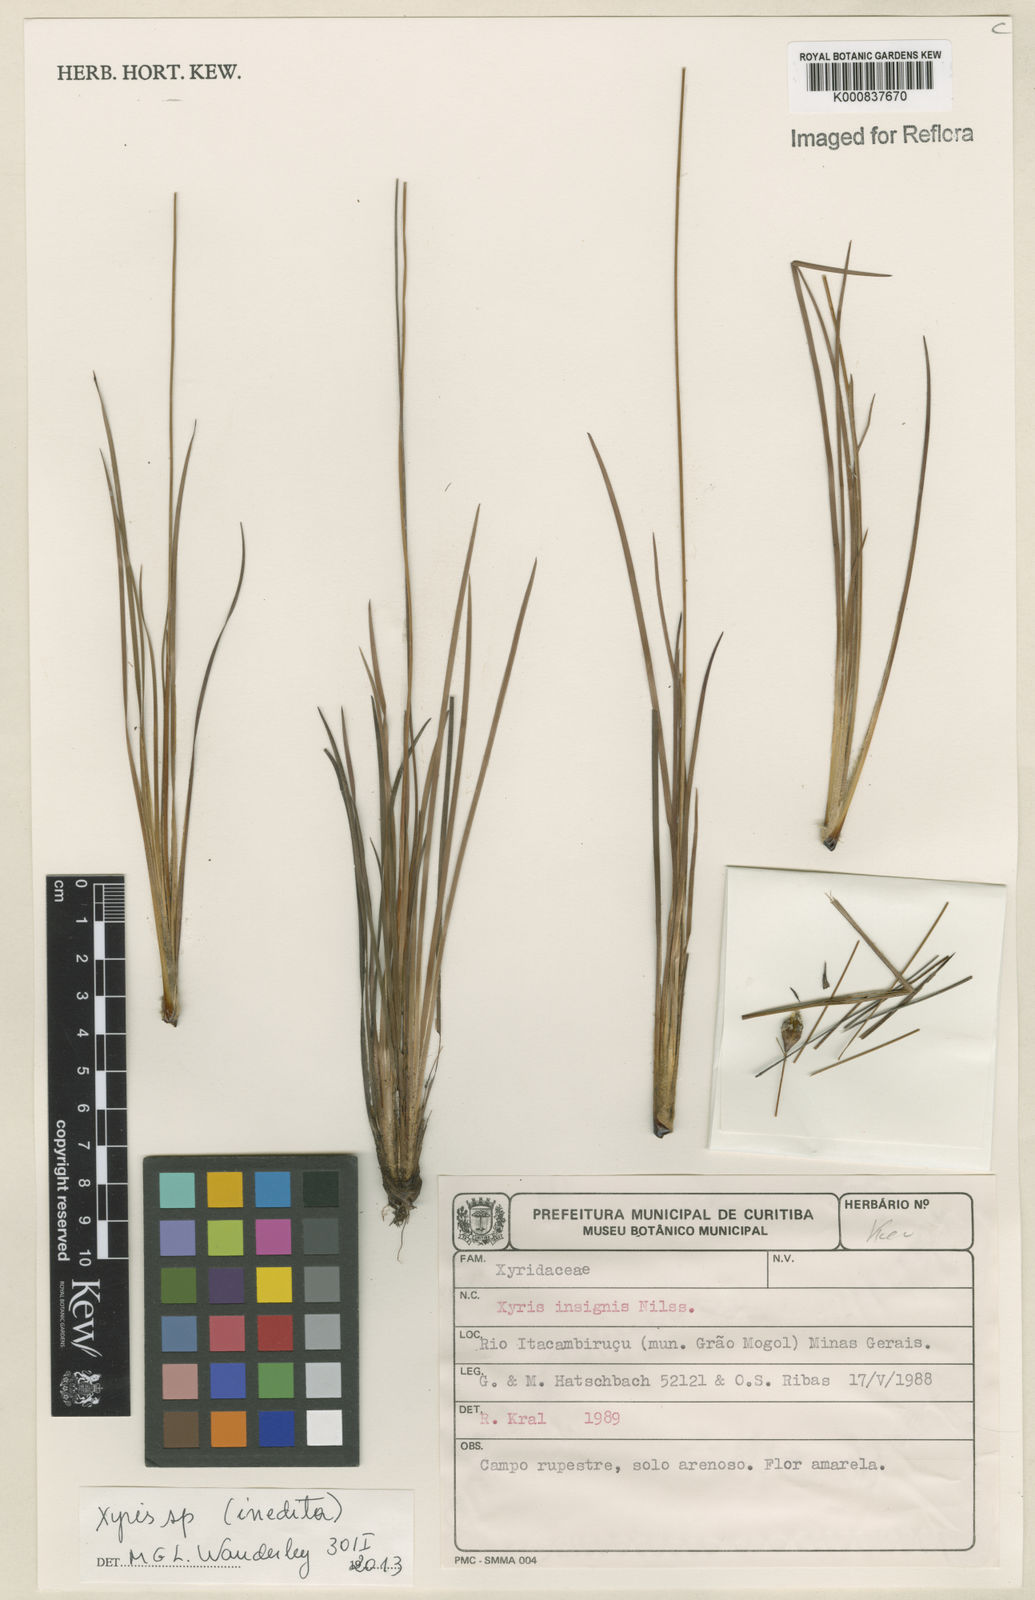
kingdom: Plantae
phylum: Tracheophyta
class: Liliopsida
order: Poales
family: Xyridaceae
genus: Xyris
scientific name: Xyris
